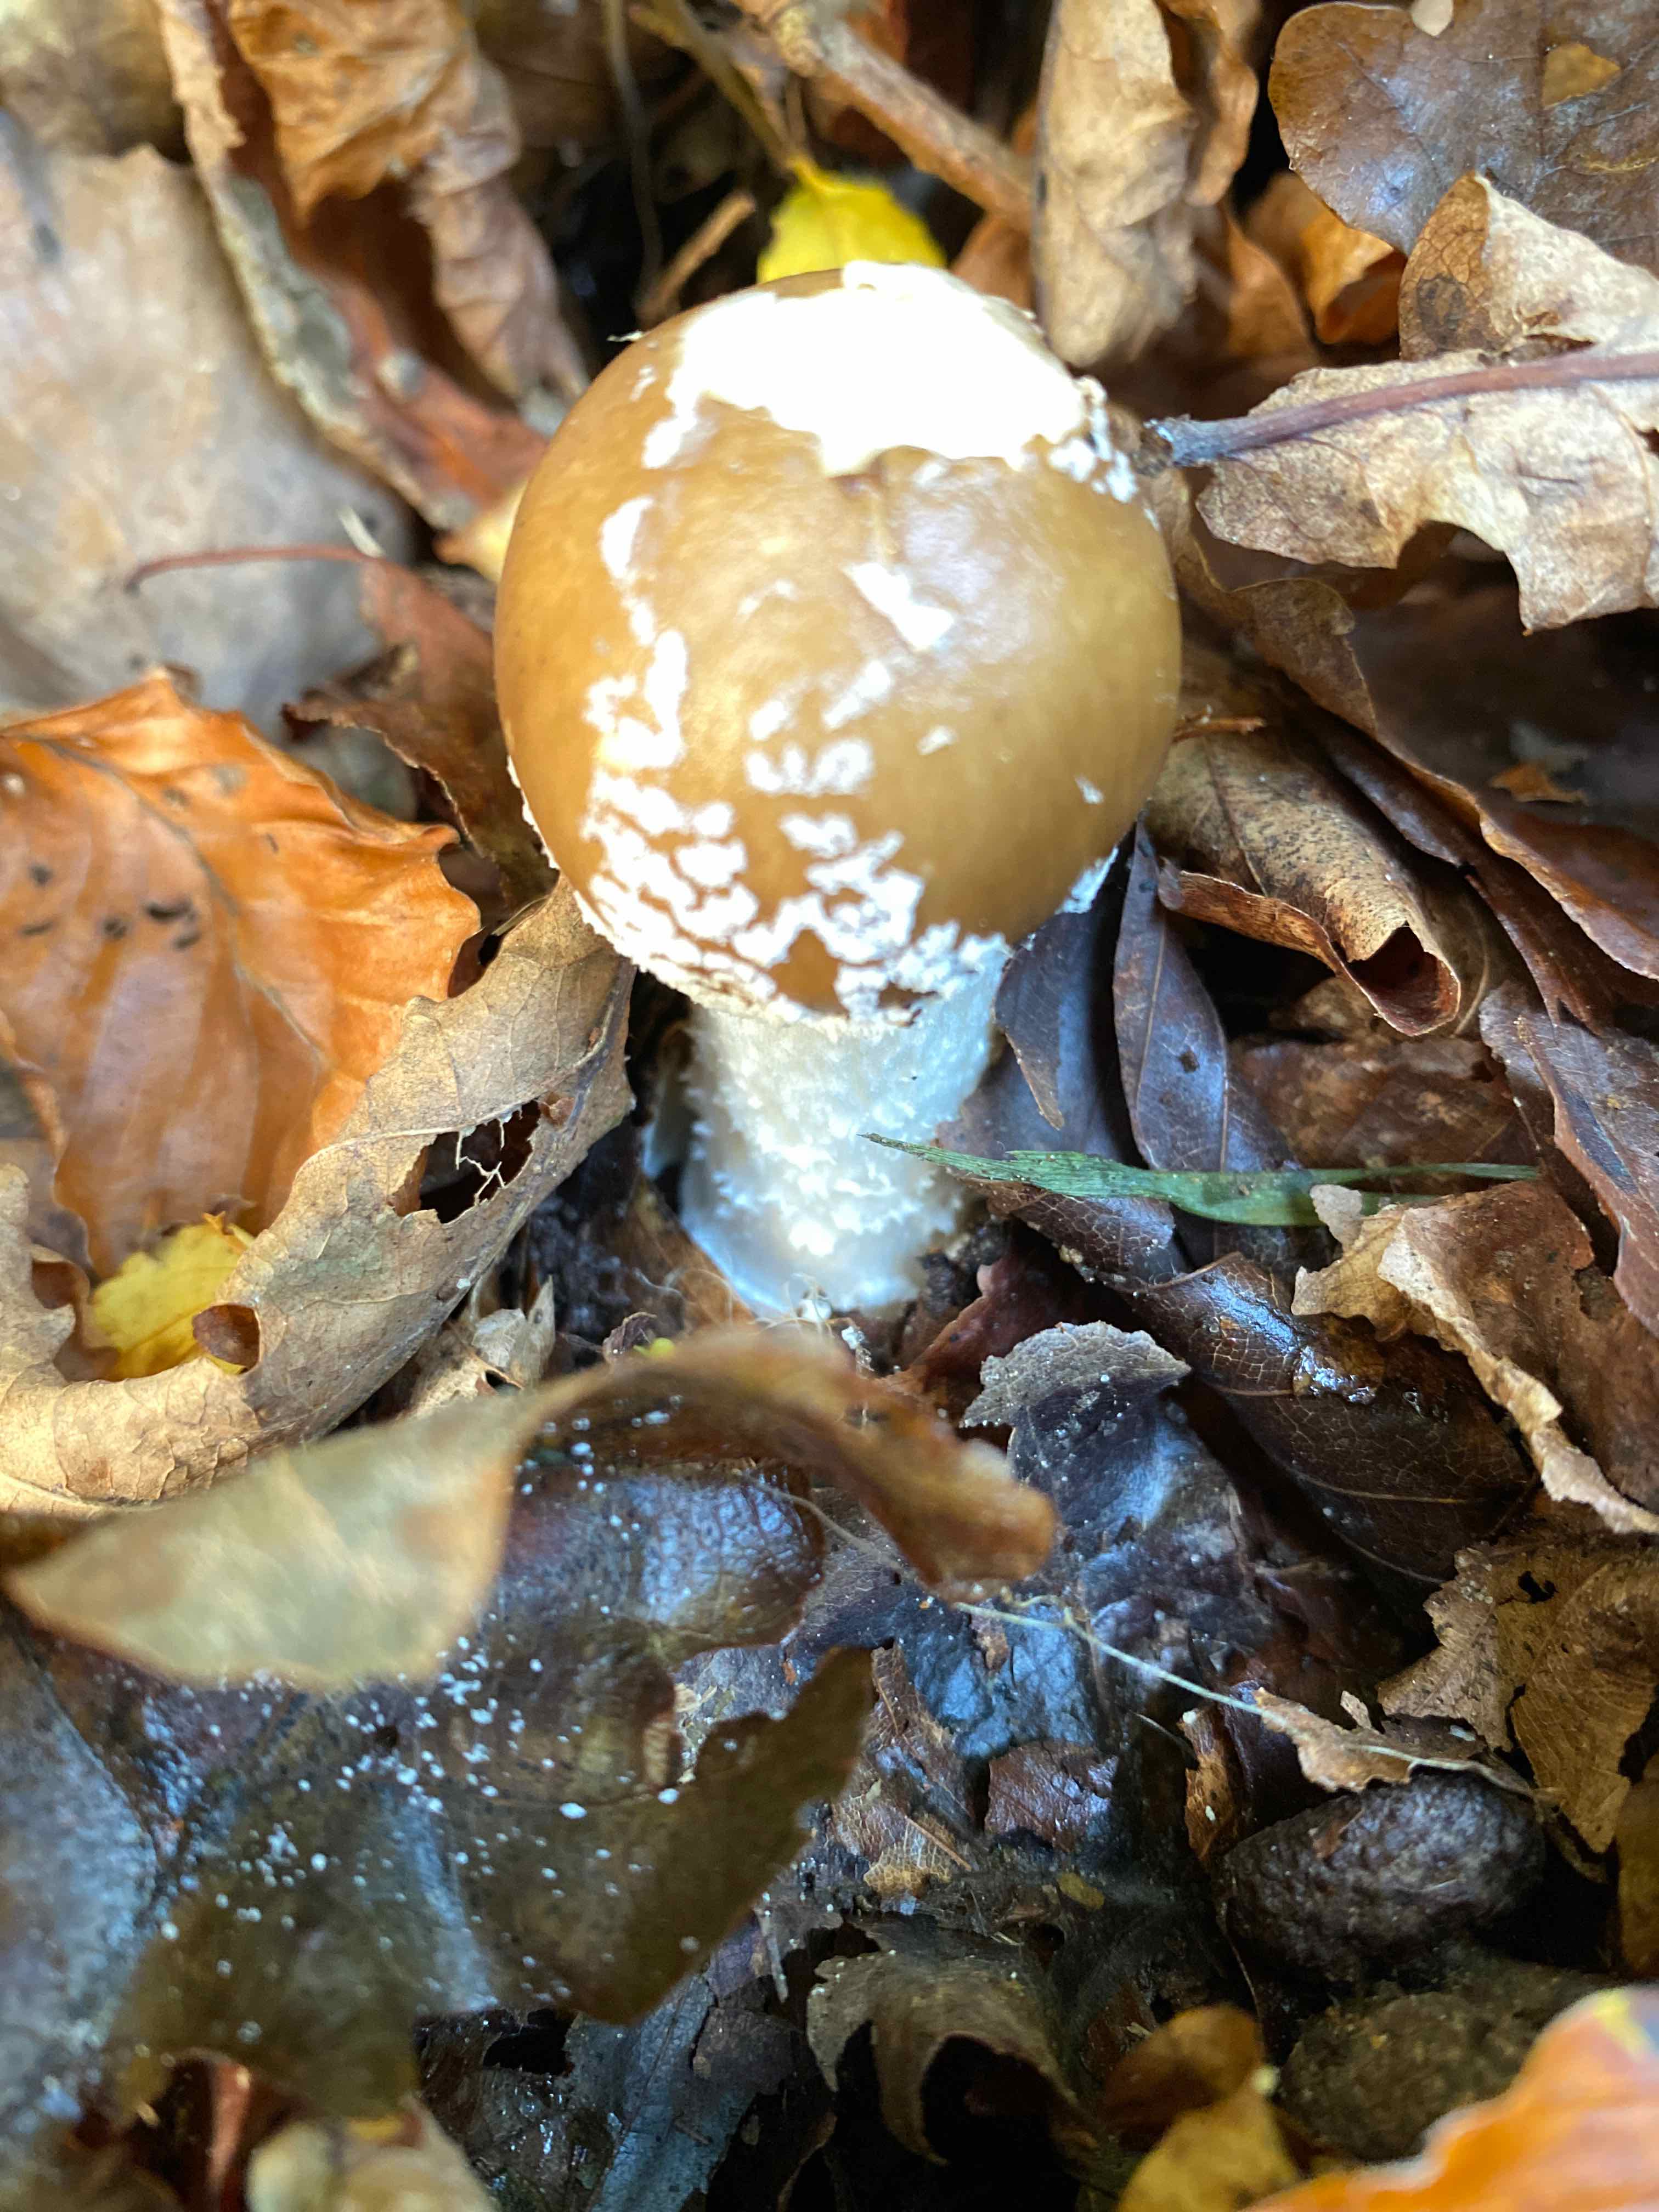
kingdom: Fungi
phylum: Basidiomycota
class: Agaricomycetes
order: Agaricales
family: Amanitaceae
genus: Amanita
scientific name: Amanita pantherina
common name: panter-fluesvamp
